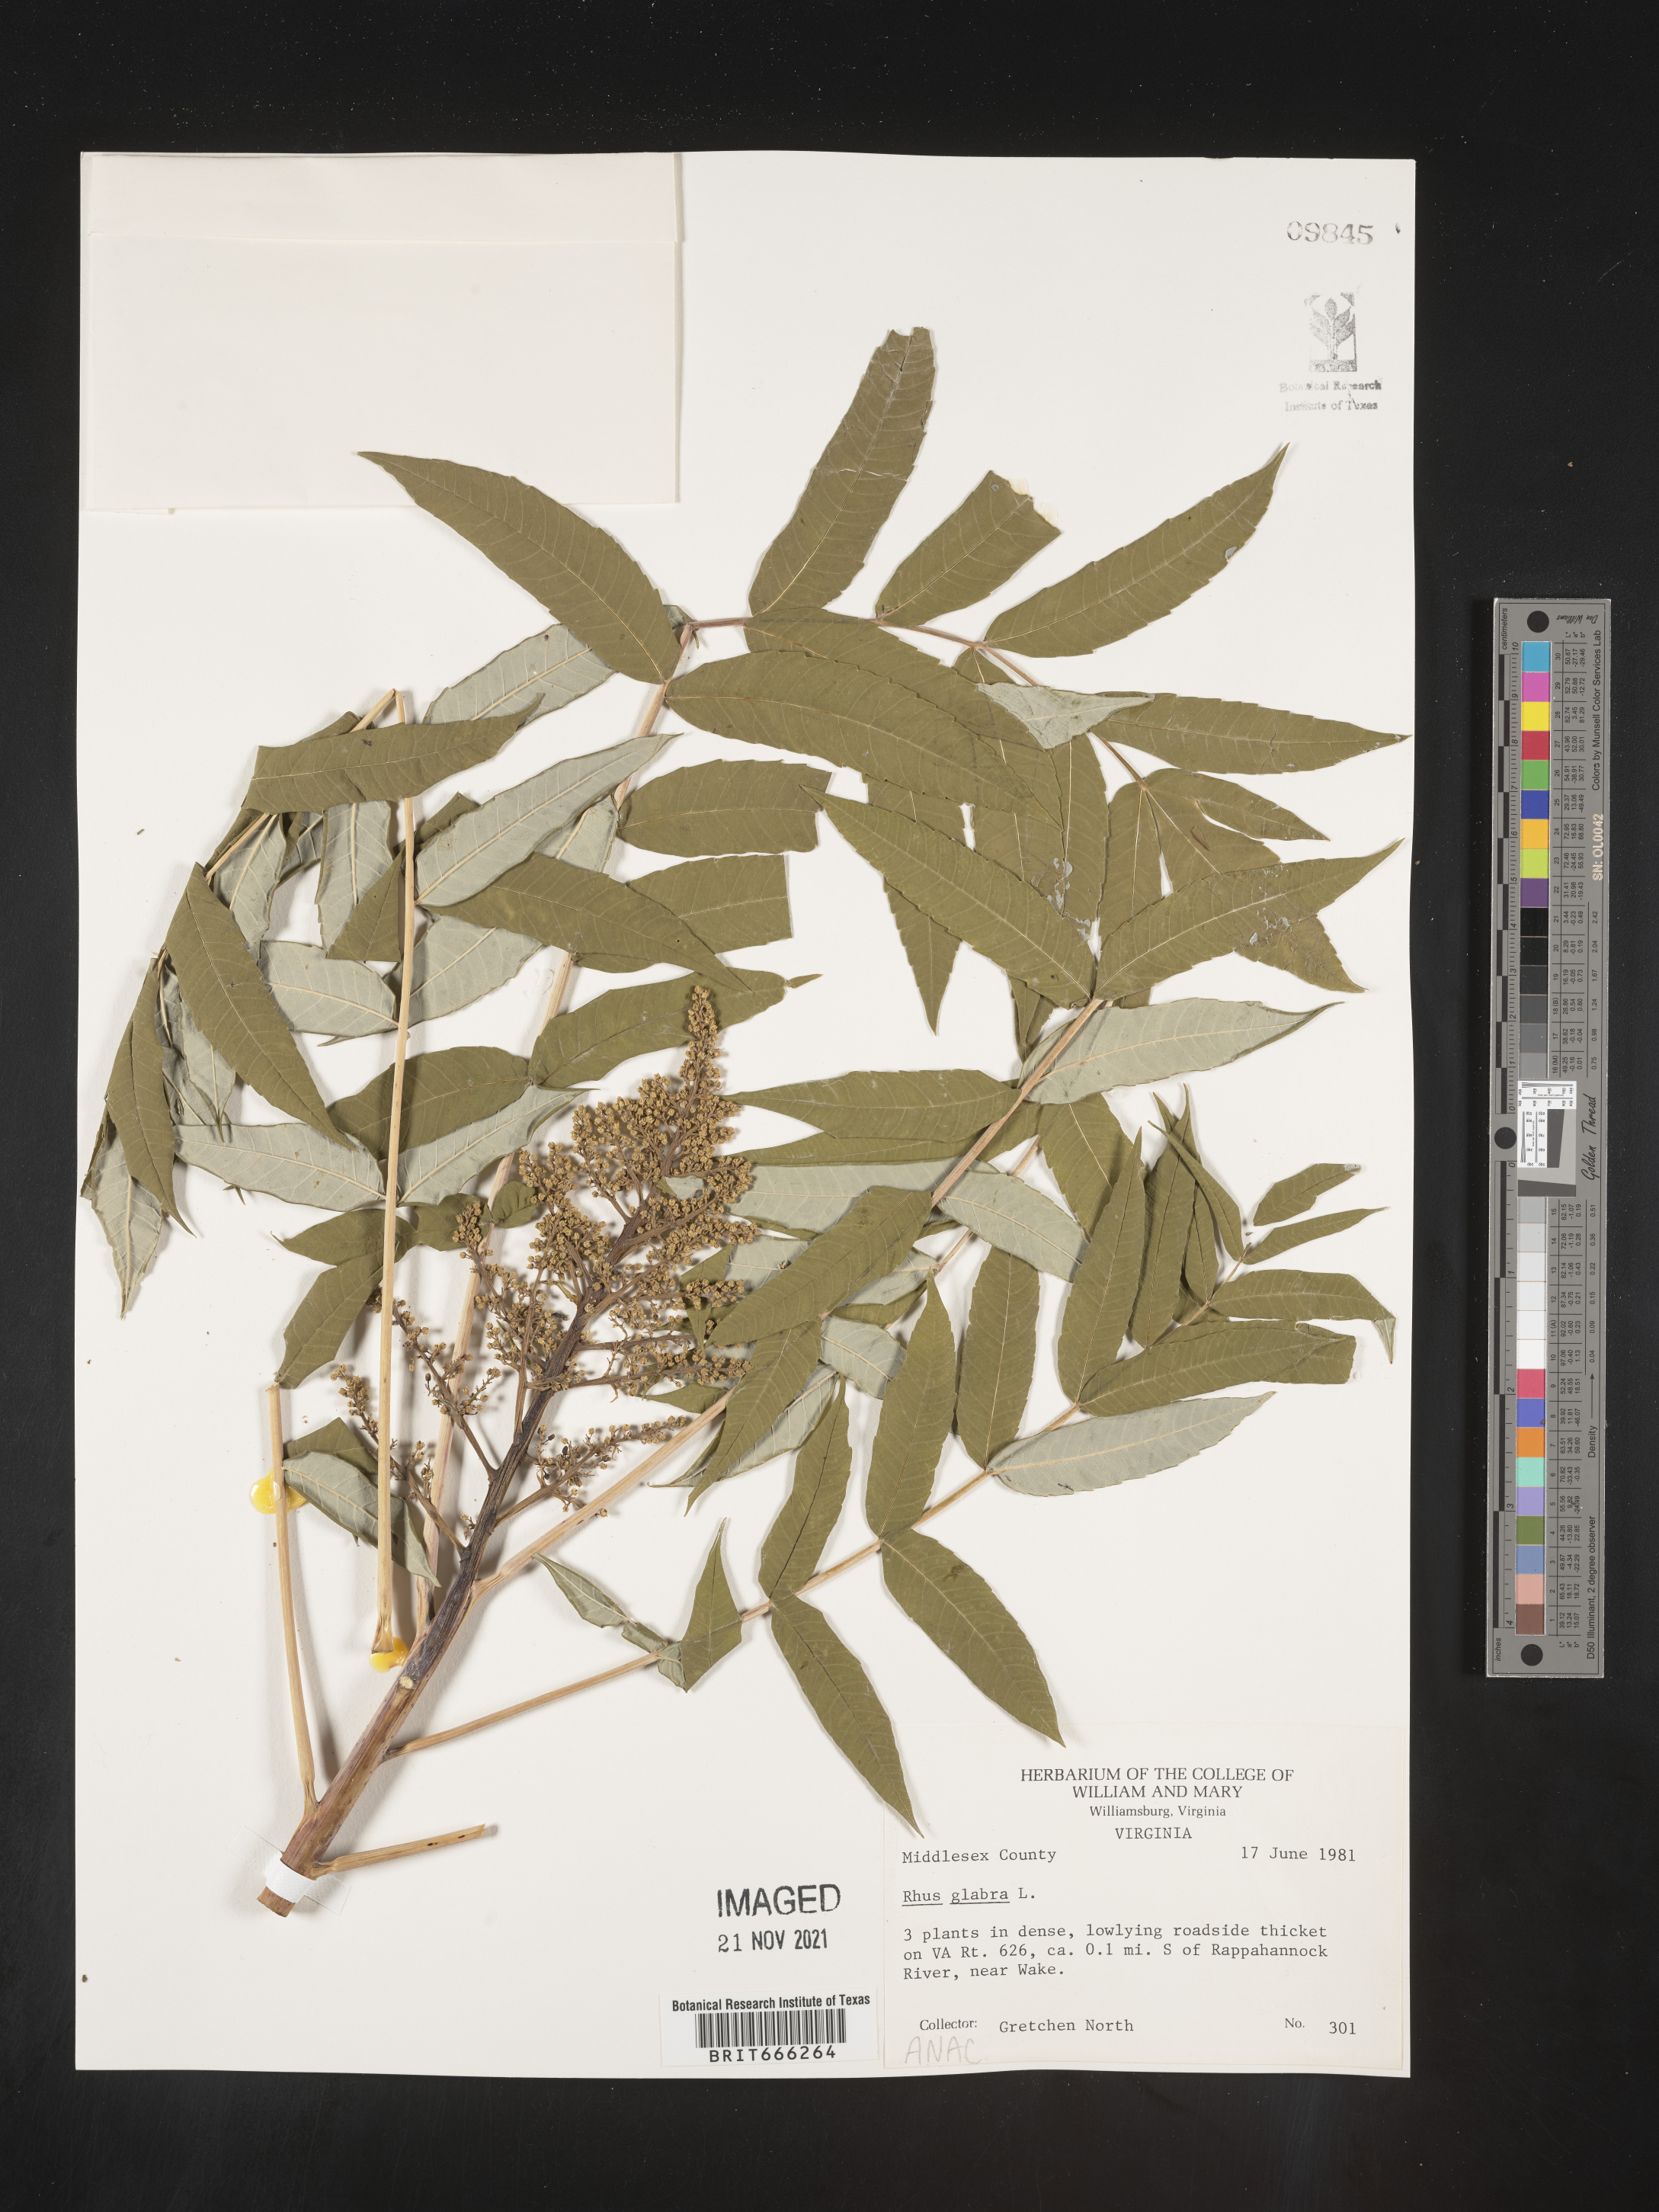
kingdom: Plantae
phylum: Tracheophyta
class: Magnoliopsida
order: Sapindales
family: Anacardiaceae
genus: Rhus
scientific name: Rhus glabra
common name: Scarlet sumac
